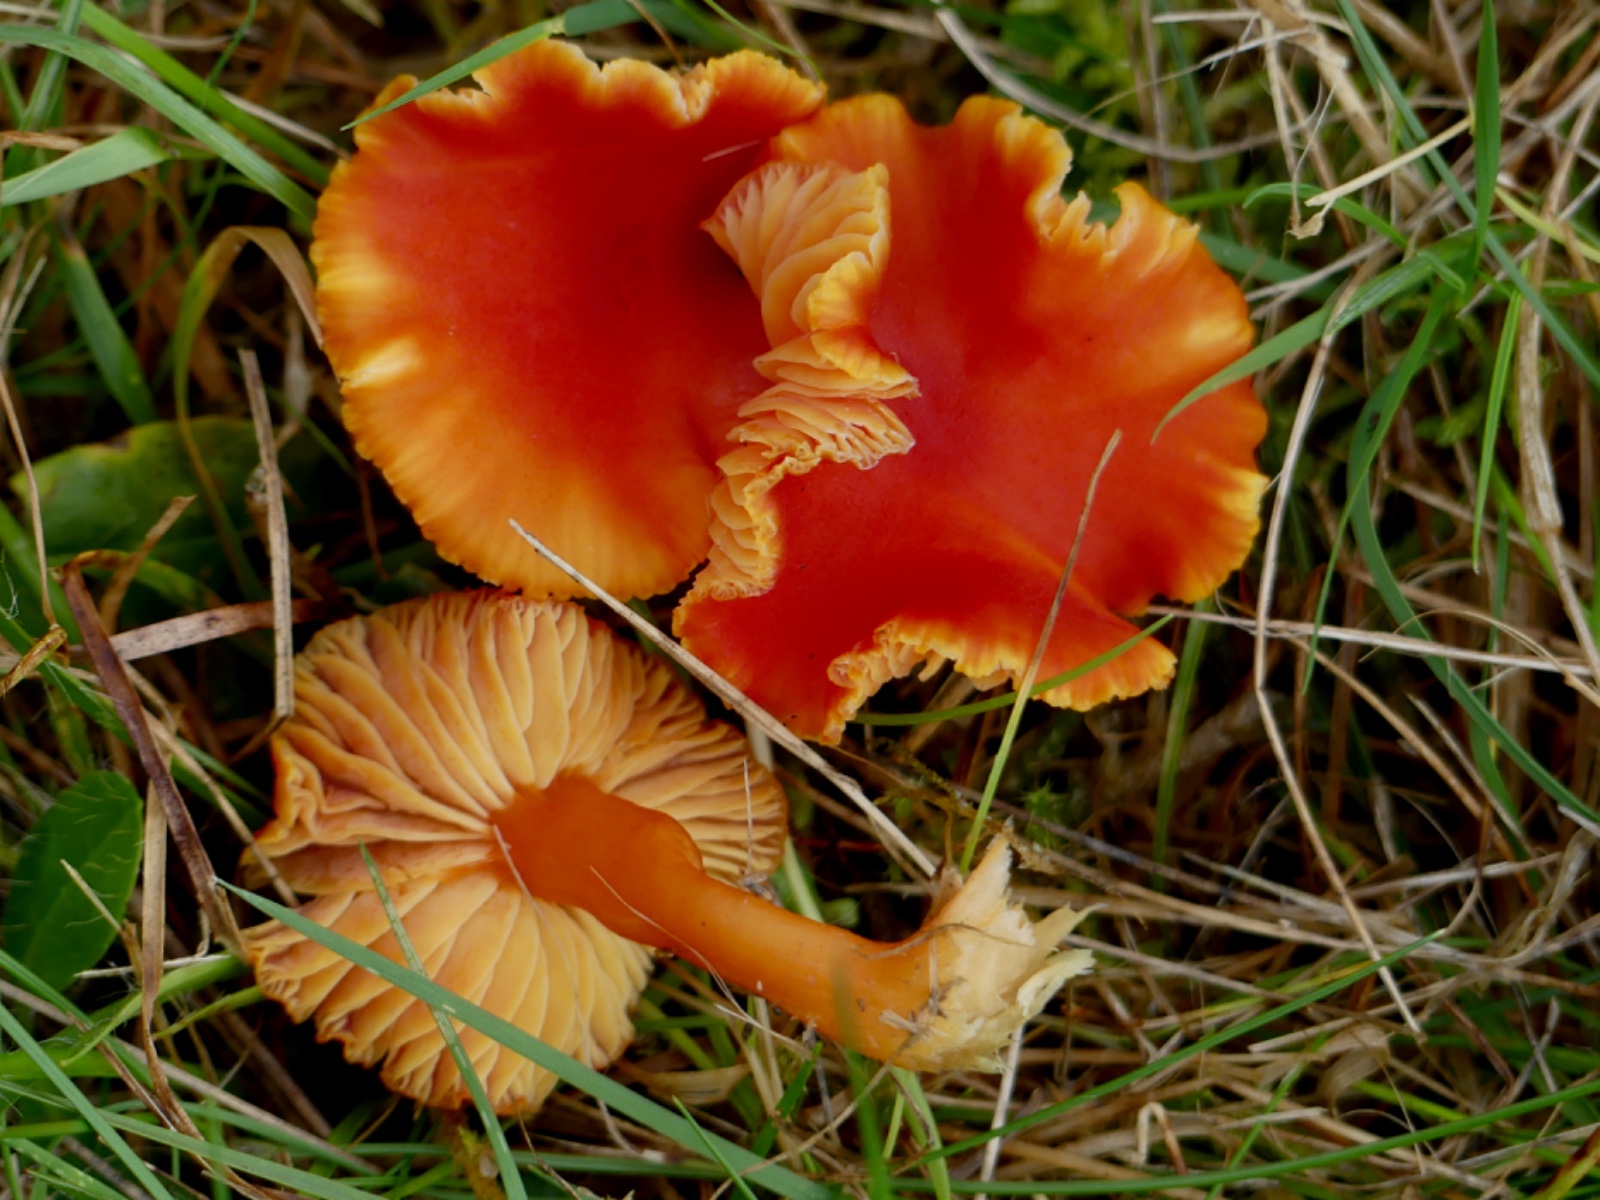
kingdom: Fungi
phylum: Basidiomycota
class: Agaricomycetes
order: Agaricales
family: Hygrophoraceae
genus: Hygrocybe
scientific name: Hygrocybe miniata
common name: mønje-vokshat
